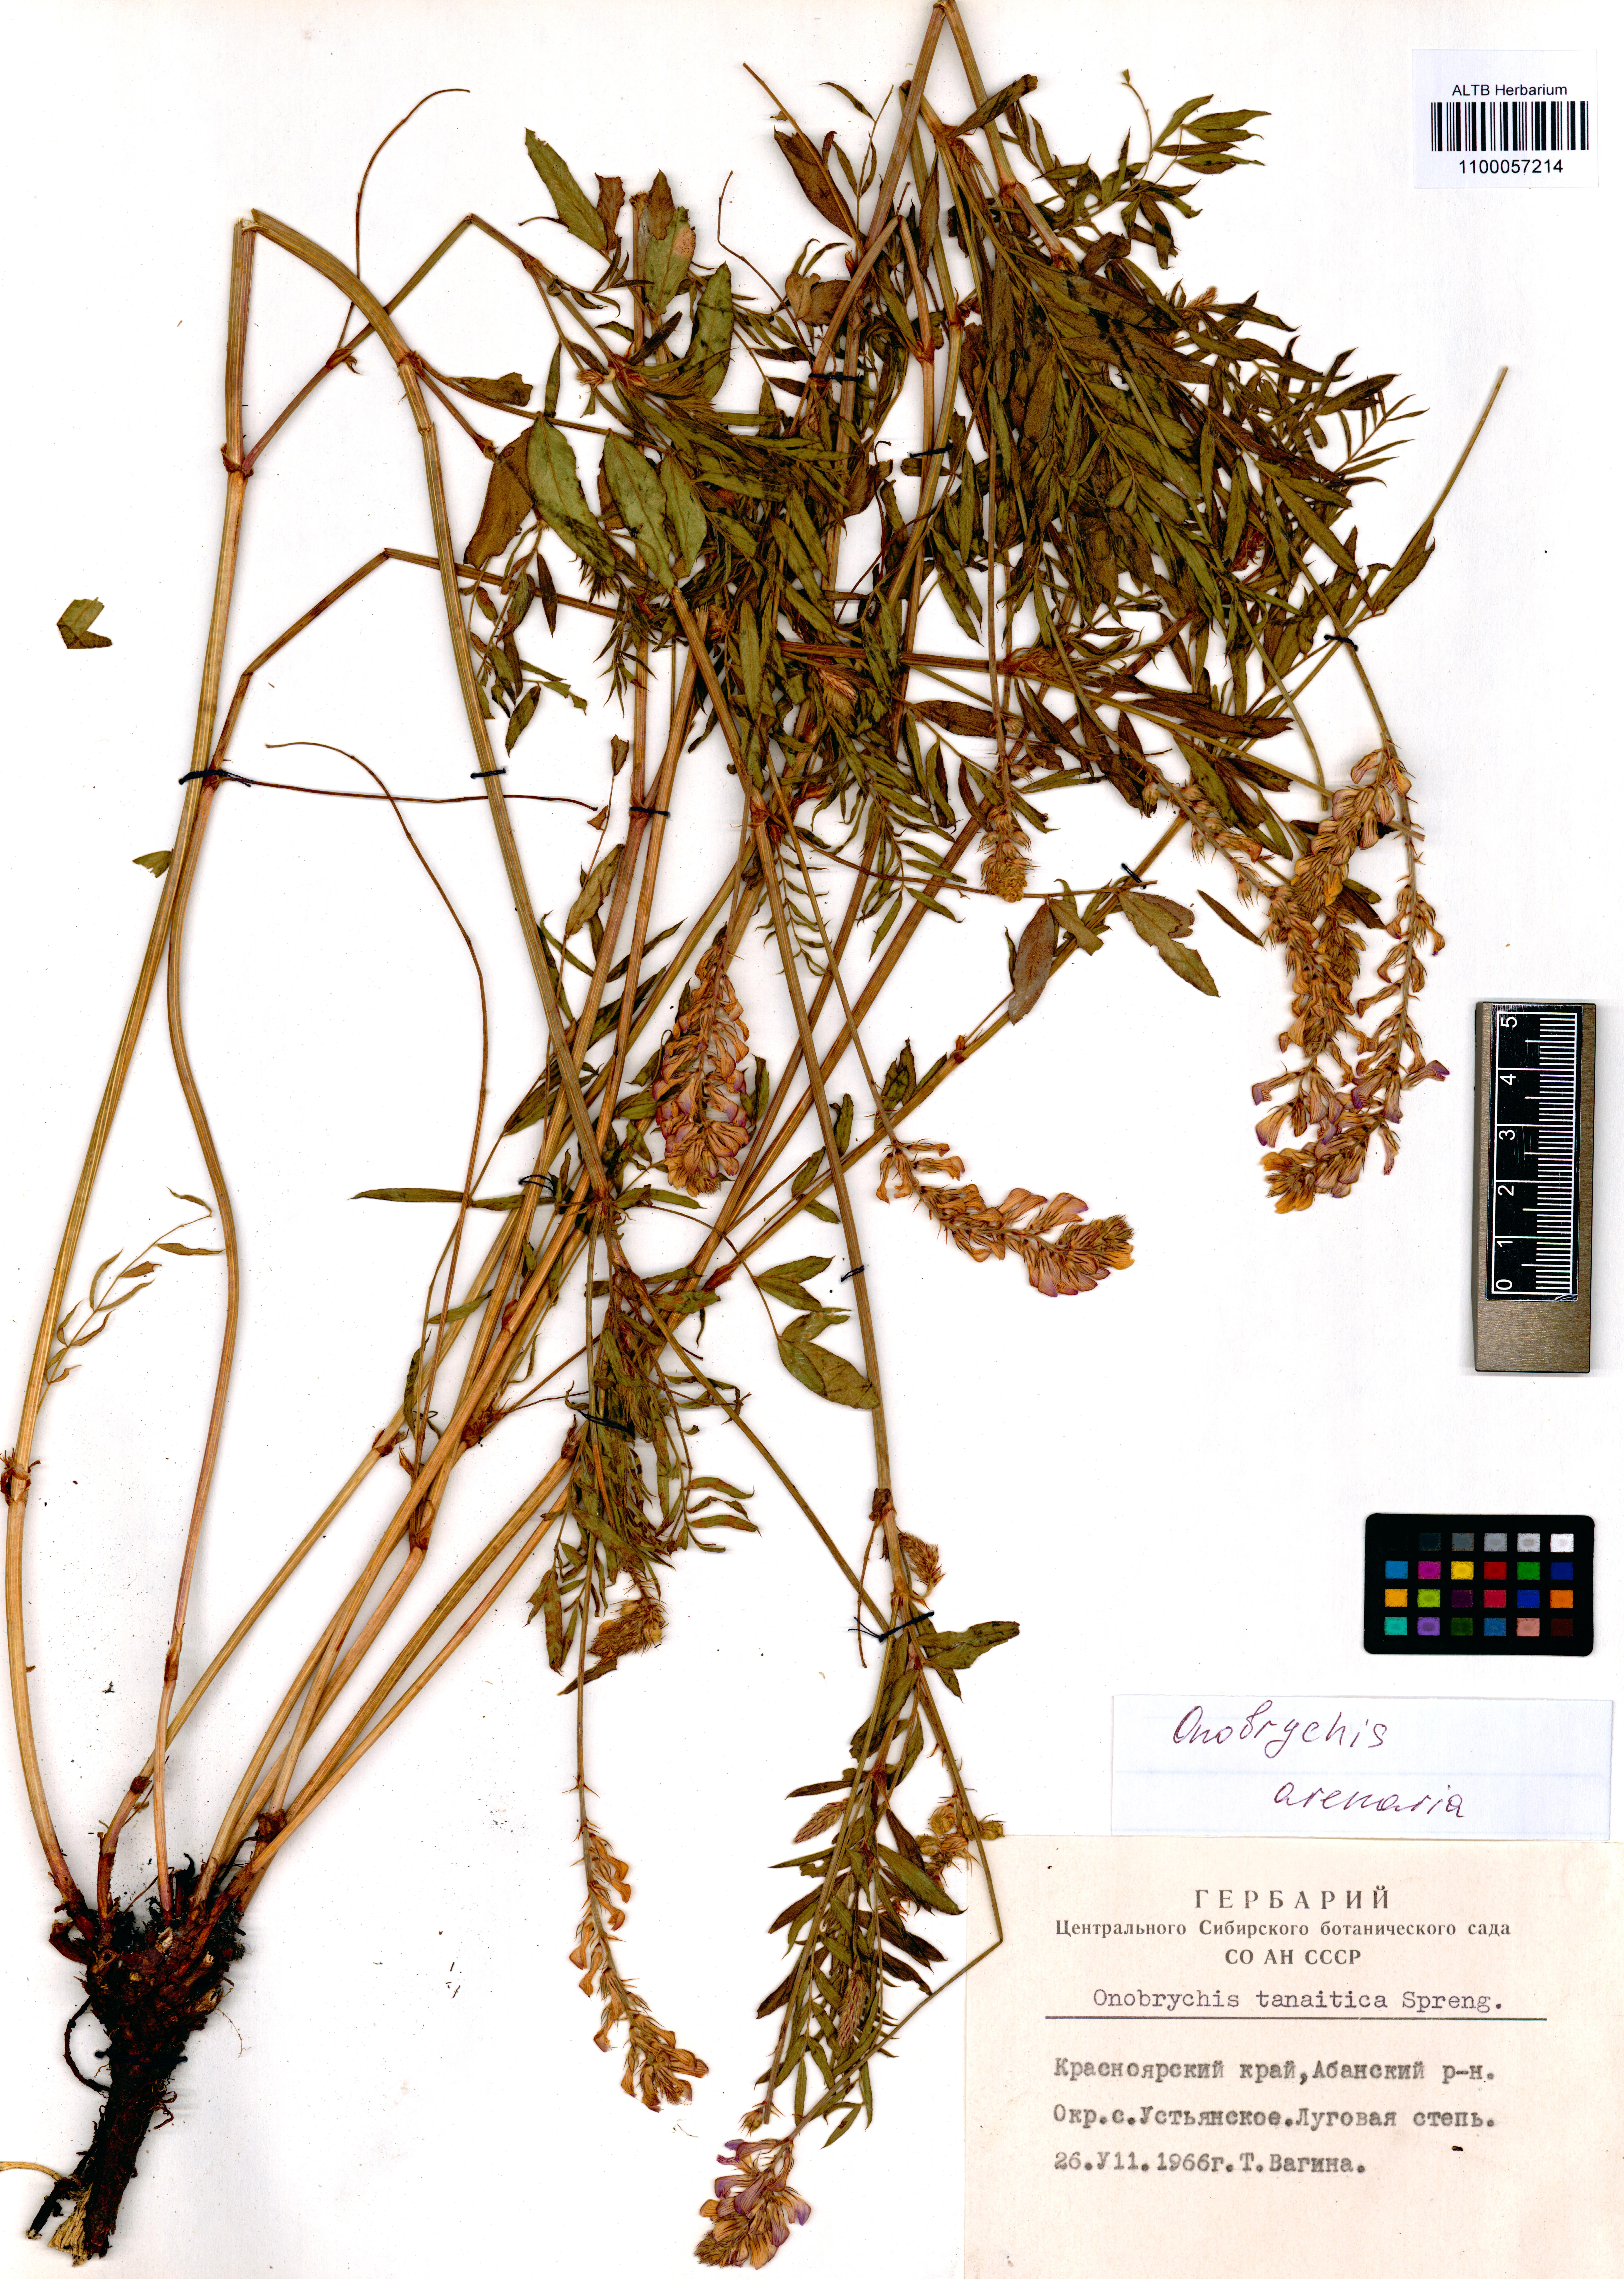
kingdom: Plantae
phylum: Tracheophyta
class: Magnoliopsida
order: Fabales
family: Fabaceae
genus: Onobrychis
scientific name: Onobrychis arenaria
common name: Sand esparcet
